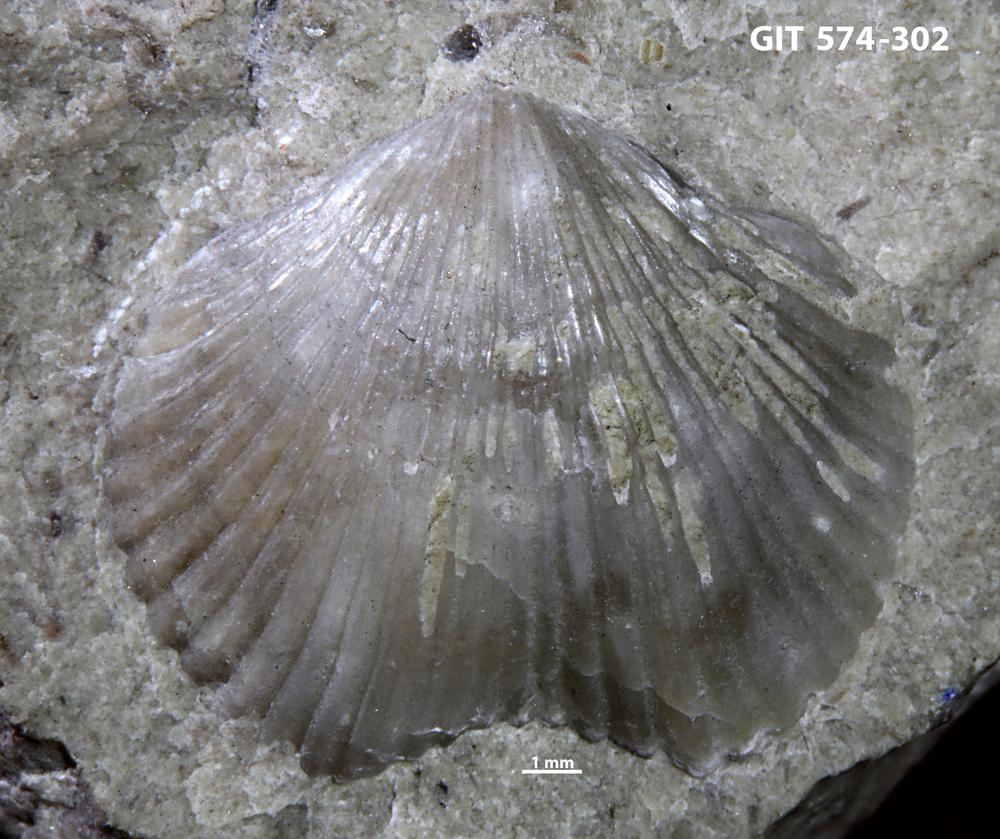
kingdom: Animalia
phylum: Brachiopoda
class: Rhynchonellata
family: Atrypinidae
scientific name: Atrypinidae
